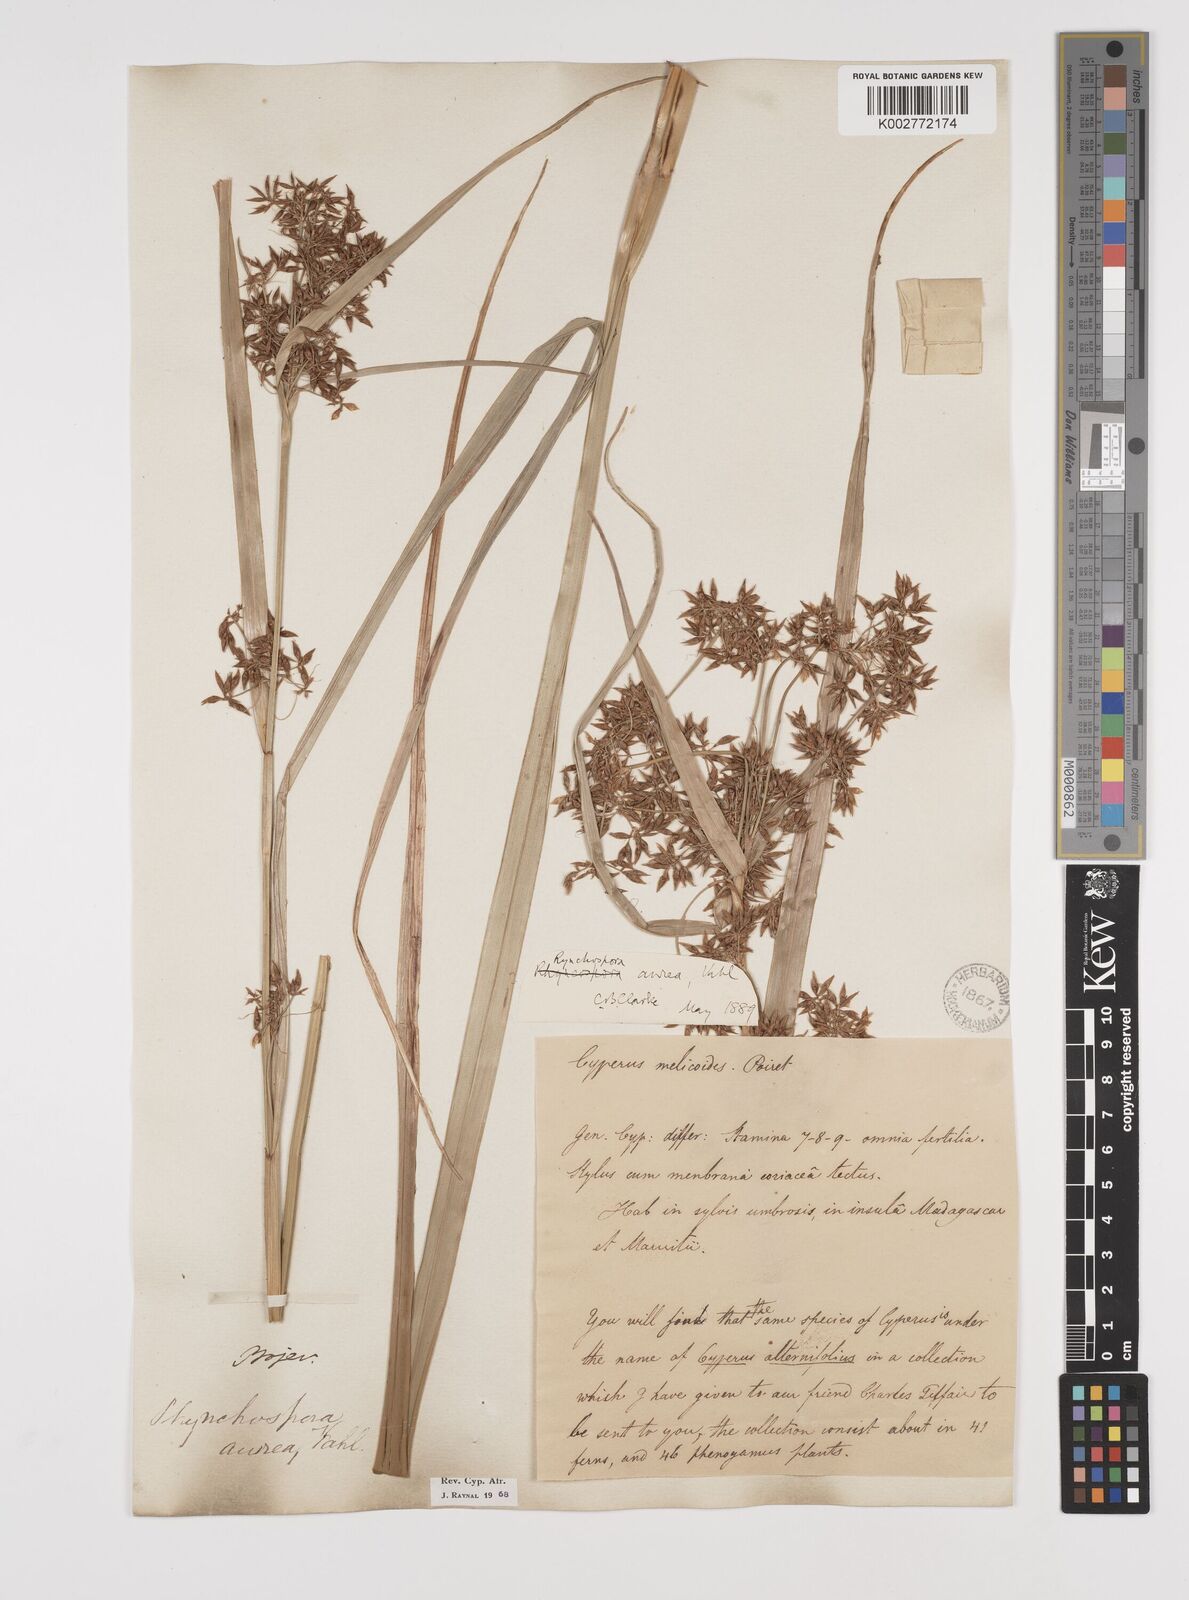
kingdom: Plantae
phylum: Tracheophyta
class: Liliopsida
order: Poales
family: Cyperaceae
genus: Rhynchospora
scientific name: Rhynchospora corymbosa
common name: Golden beak sedge
